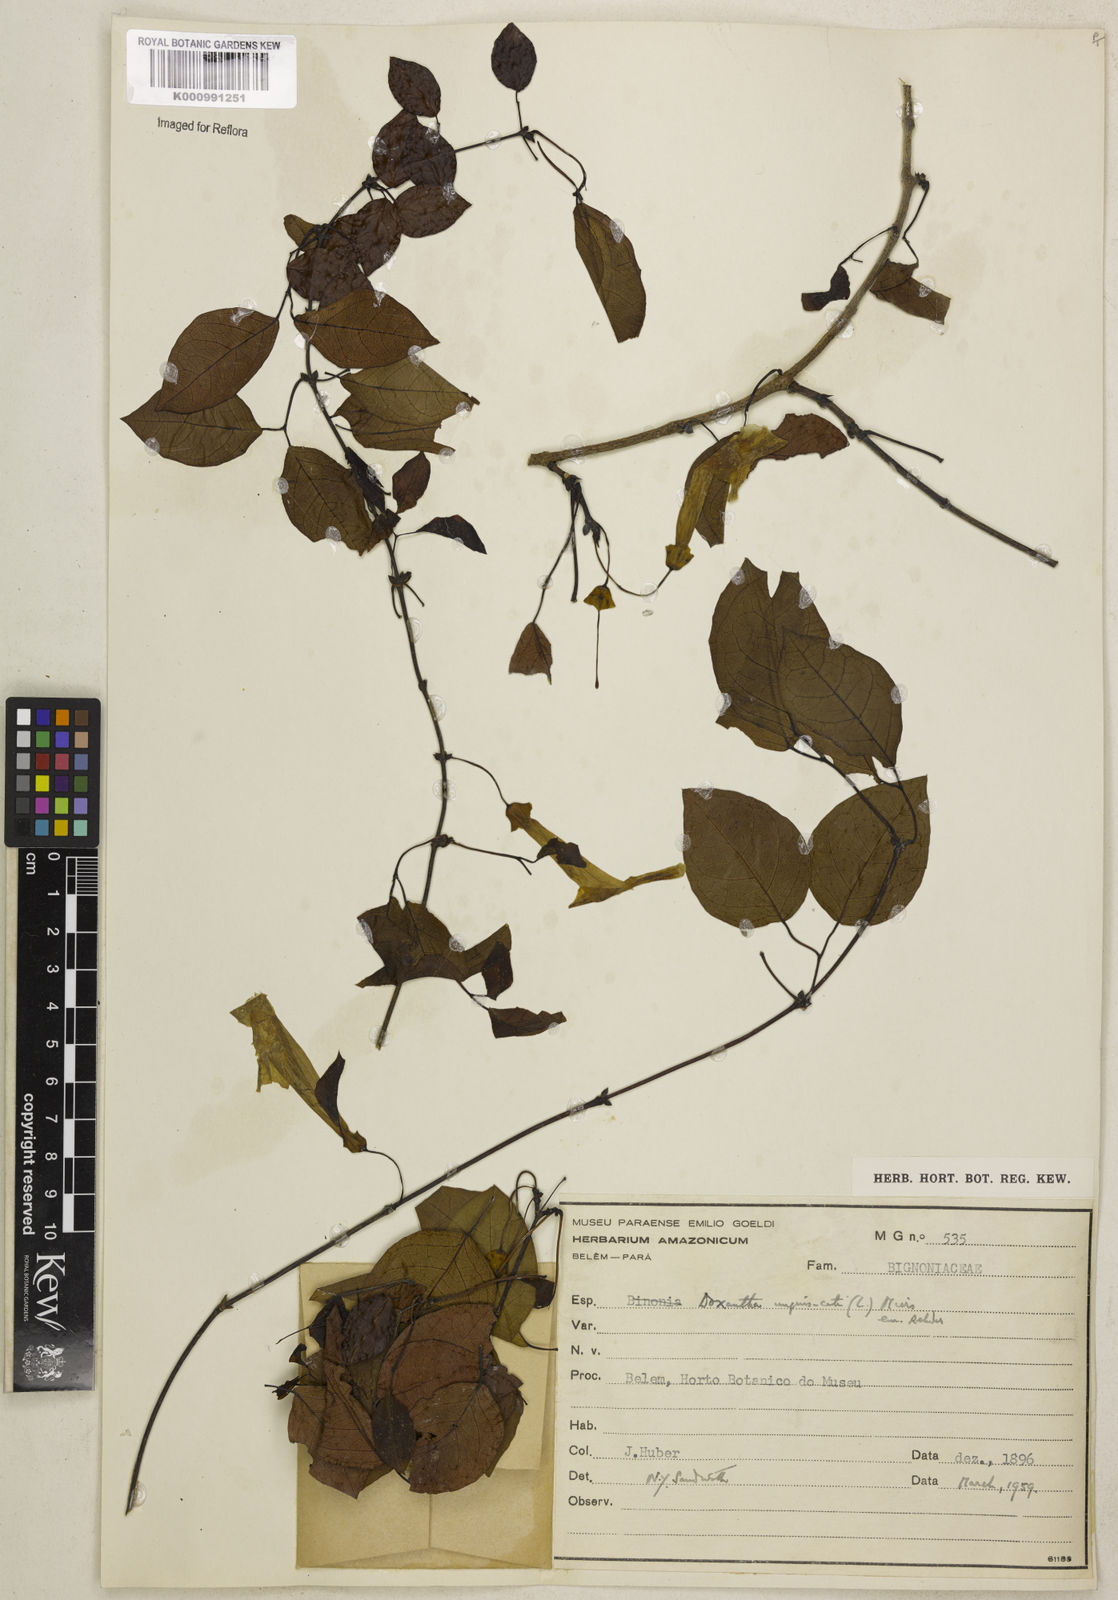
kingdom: Plantae
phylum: Tracheophyta
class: Magnoliopsida
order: Lamiales
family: Bignoniaceae
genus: Dolichandra
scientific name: Dolichandra unguis-cati
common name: Catclaw vine
